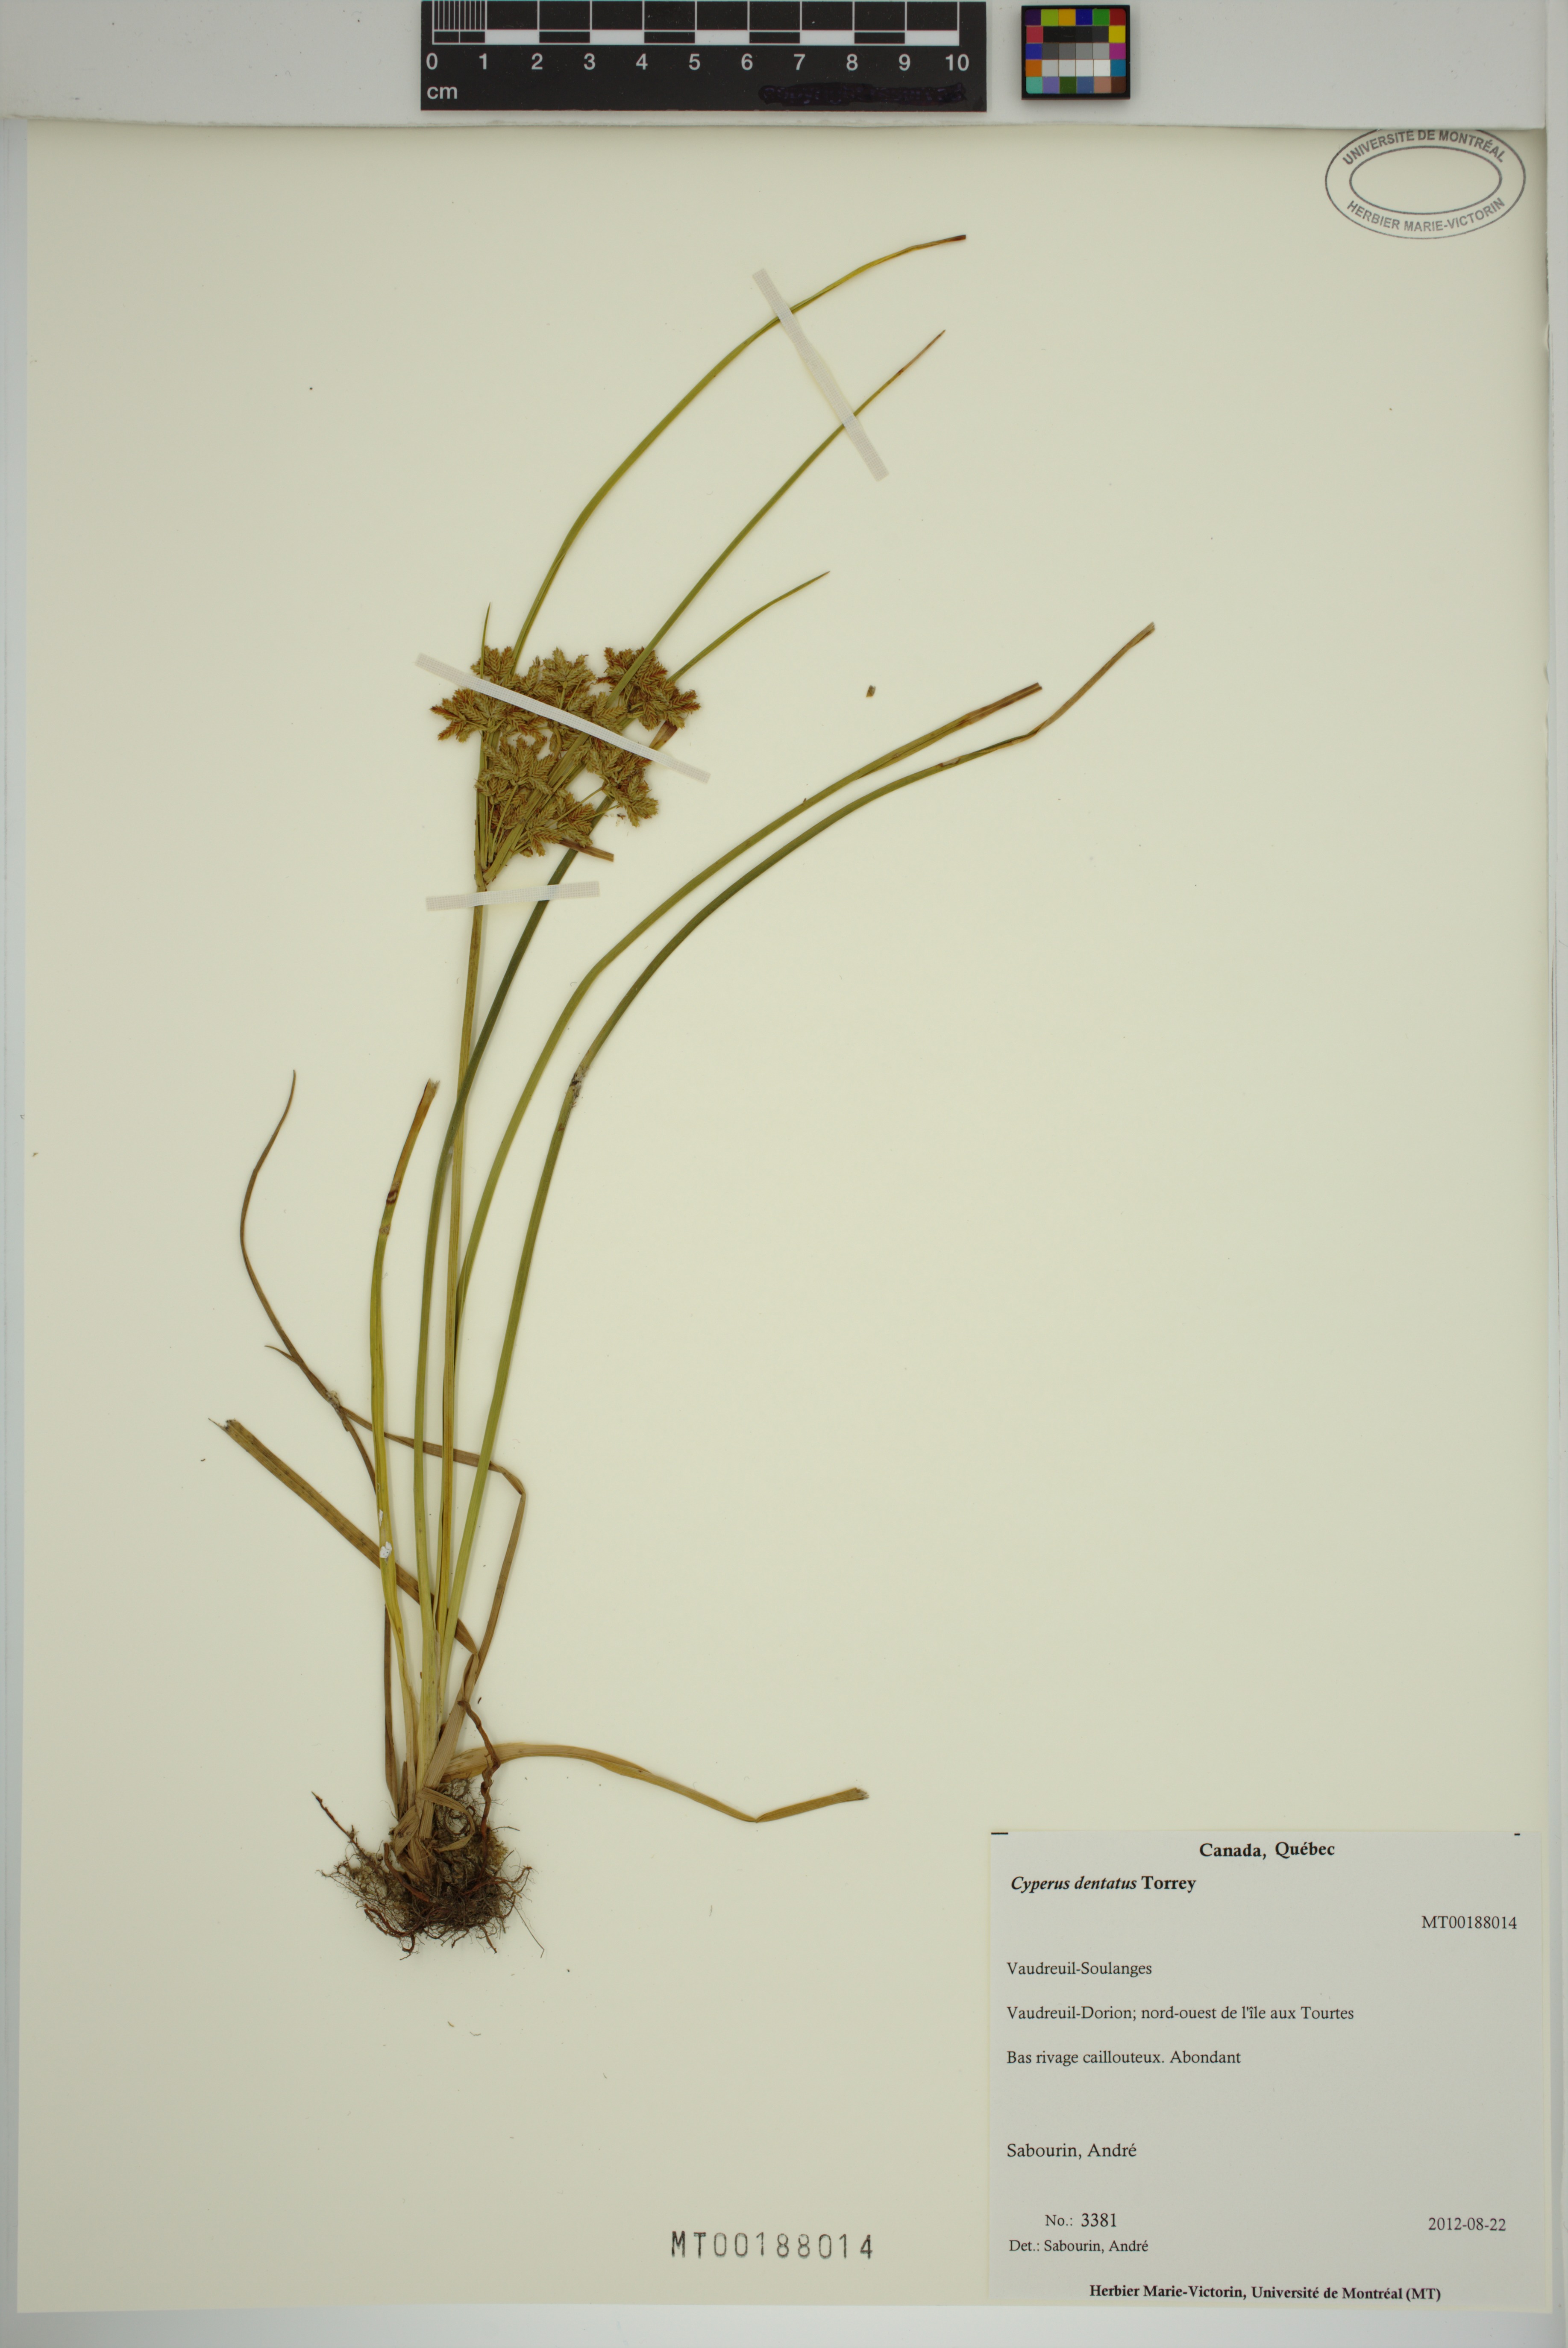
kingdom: Plantae
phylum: Tracheophyta
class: Liliopsida
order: Poales
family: Cyperaceae
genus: Cyperus
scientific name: Cyperus dentatus
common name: Dentate umbrella sedge
